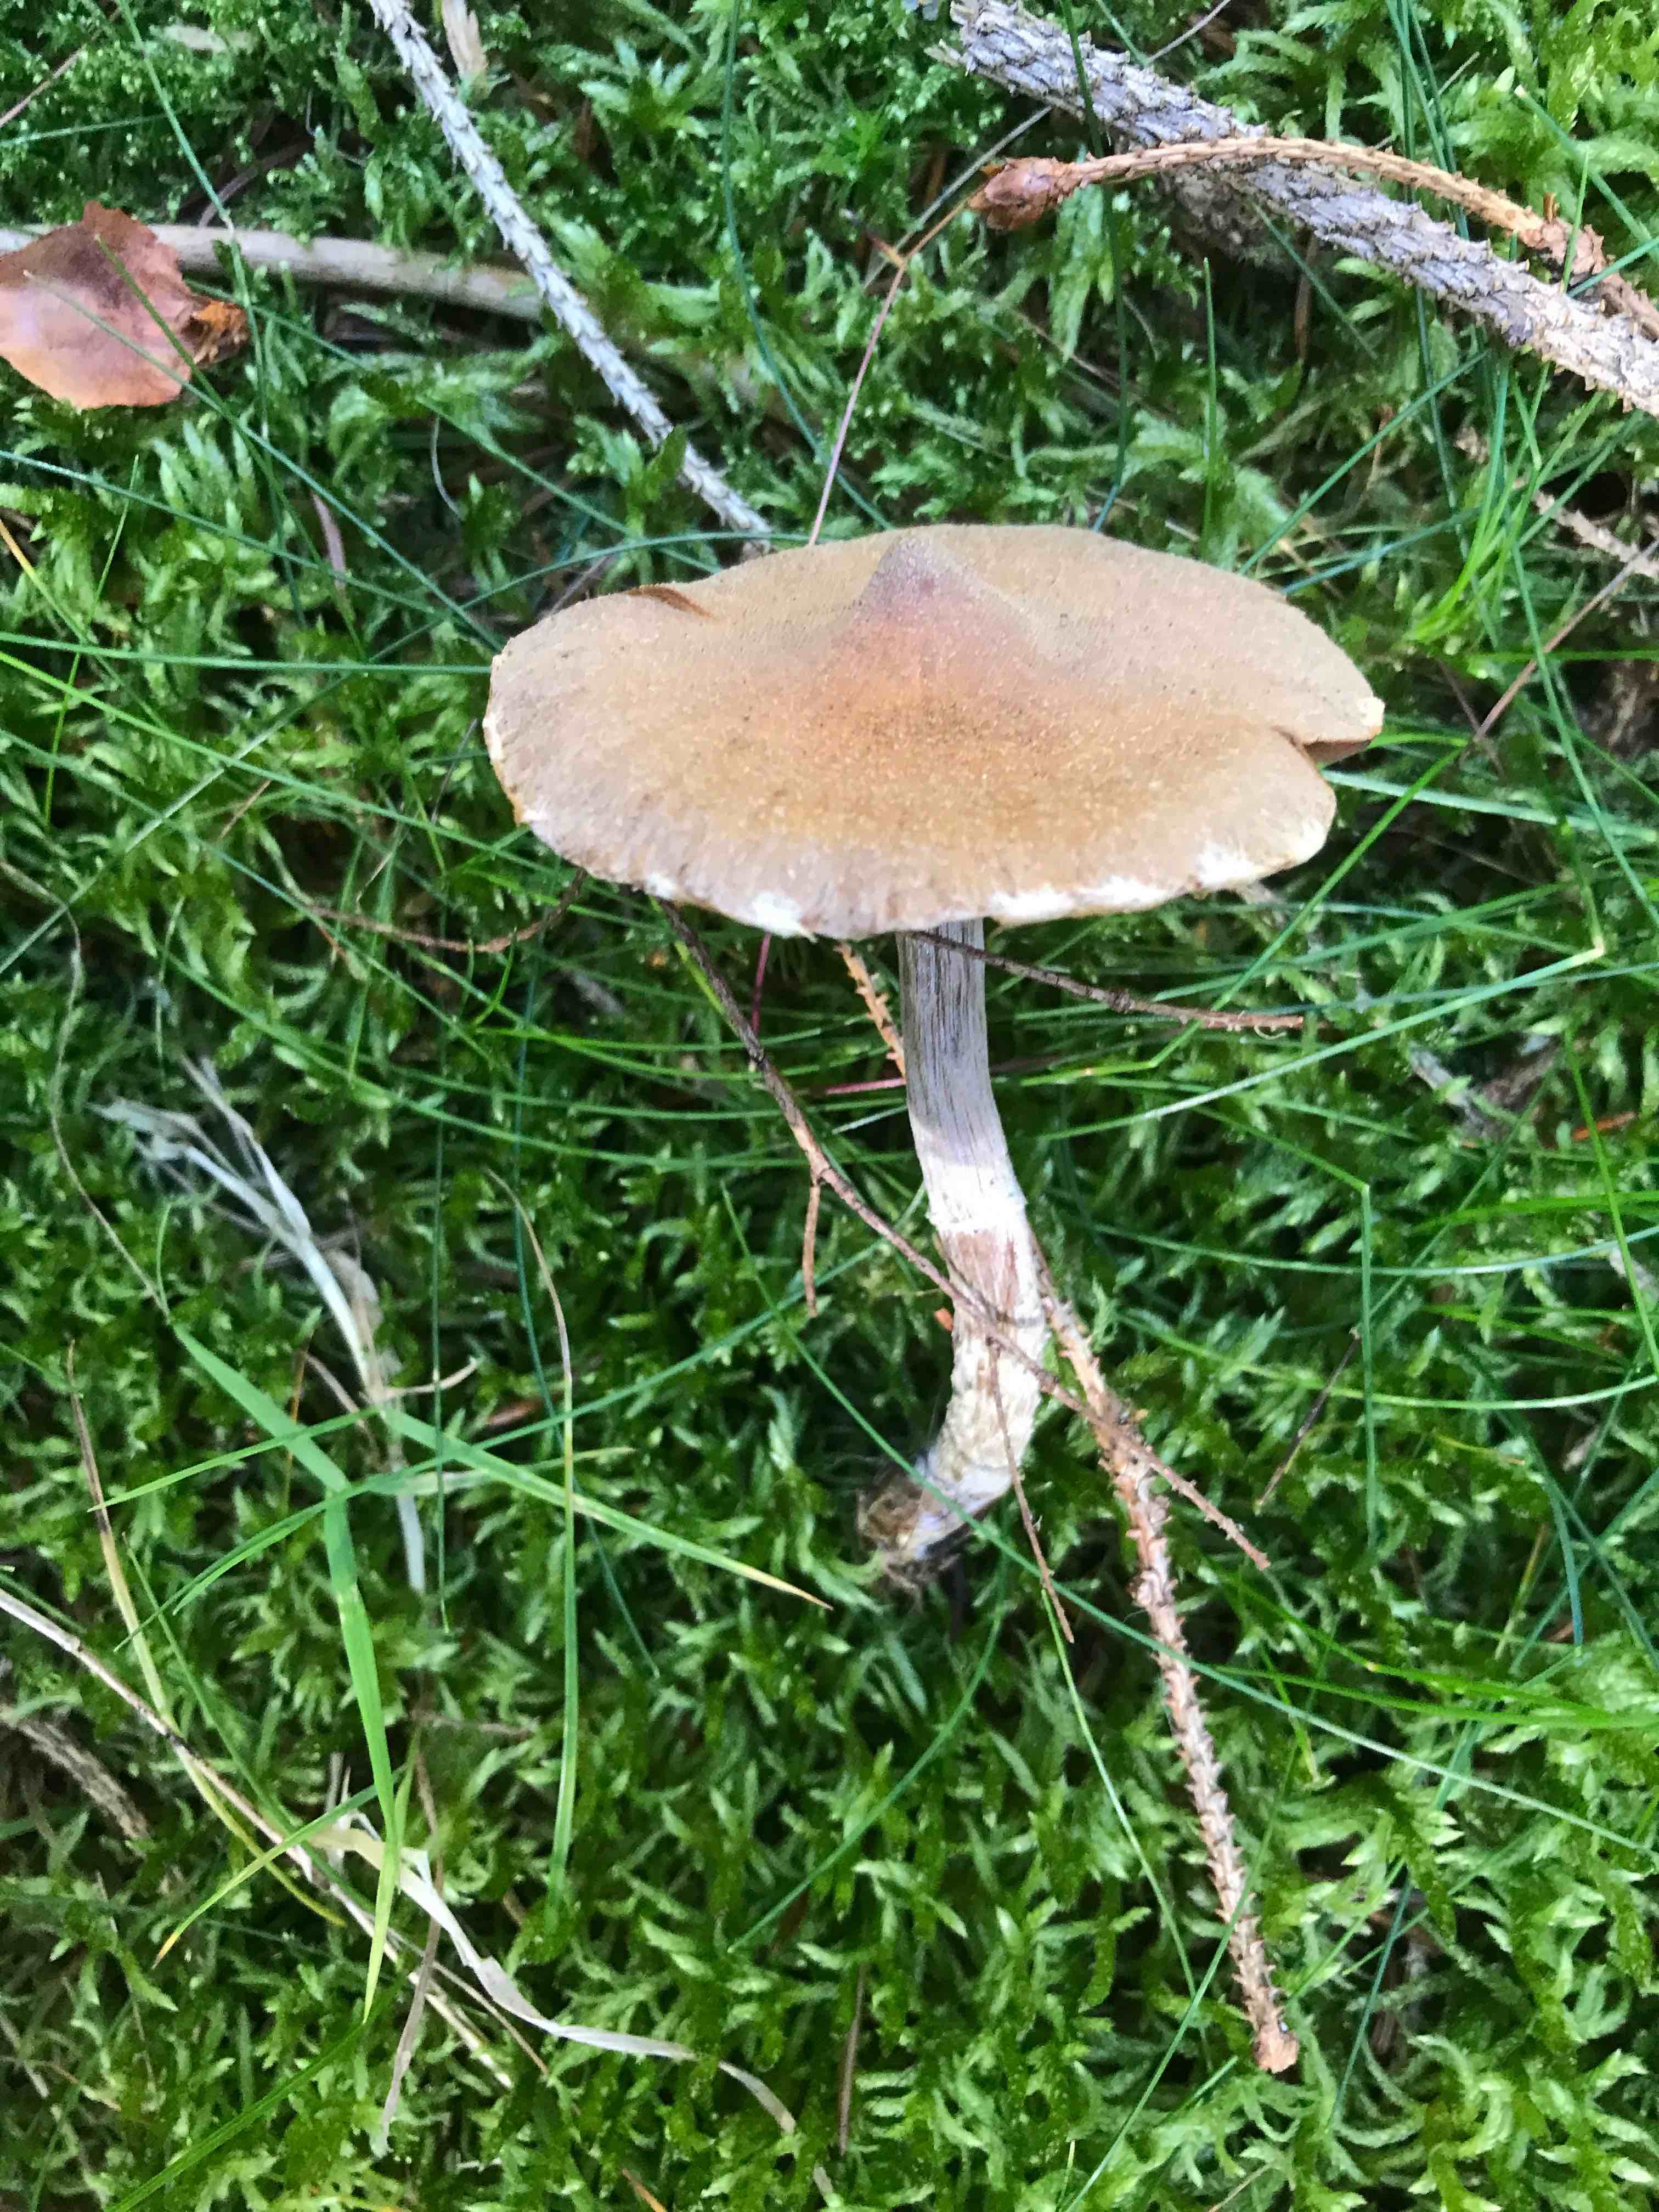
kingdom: Fungi
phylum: Basidiomycota
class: Agaricomycetes
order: Agaricales
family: Cortinariaceae
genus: Cortinarius
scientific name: Cortinarius
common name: pelargonie-slørhat
